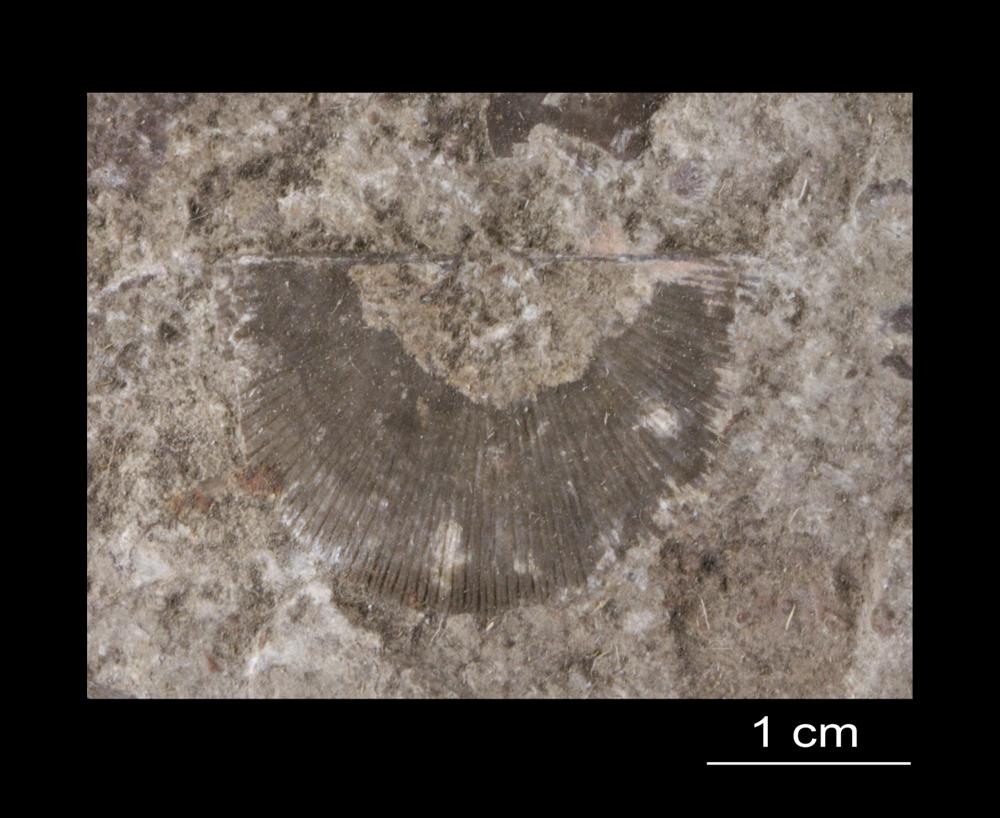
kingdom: Animalia
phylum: Brachiopoda
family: Strophomenidae
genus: Strophomena
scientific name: Strophomena
